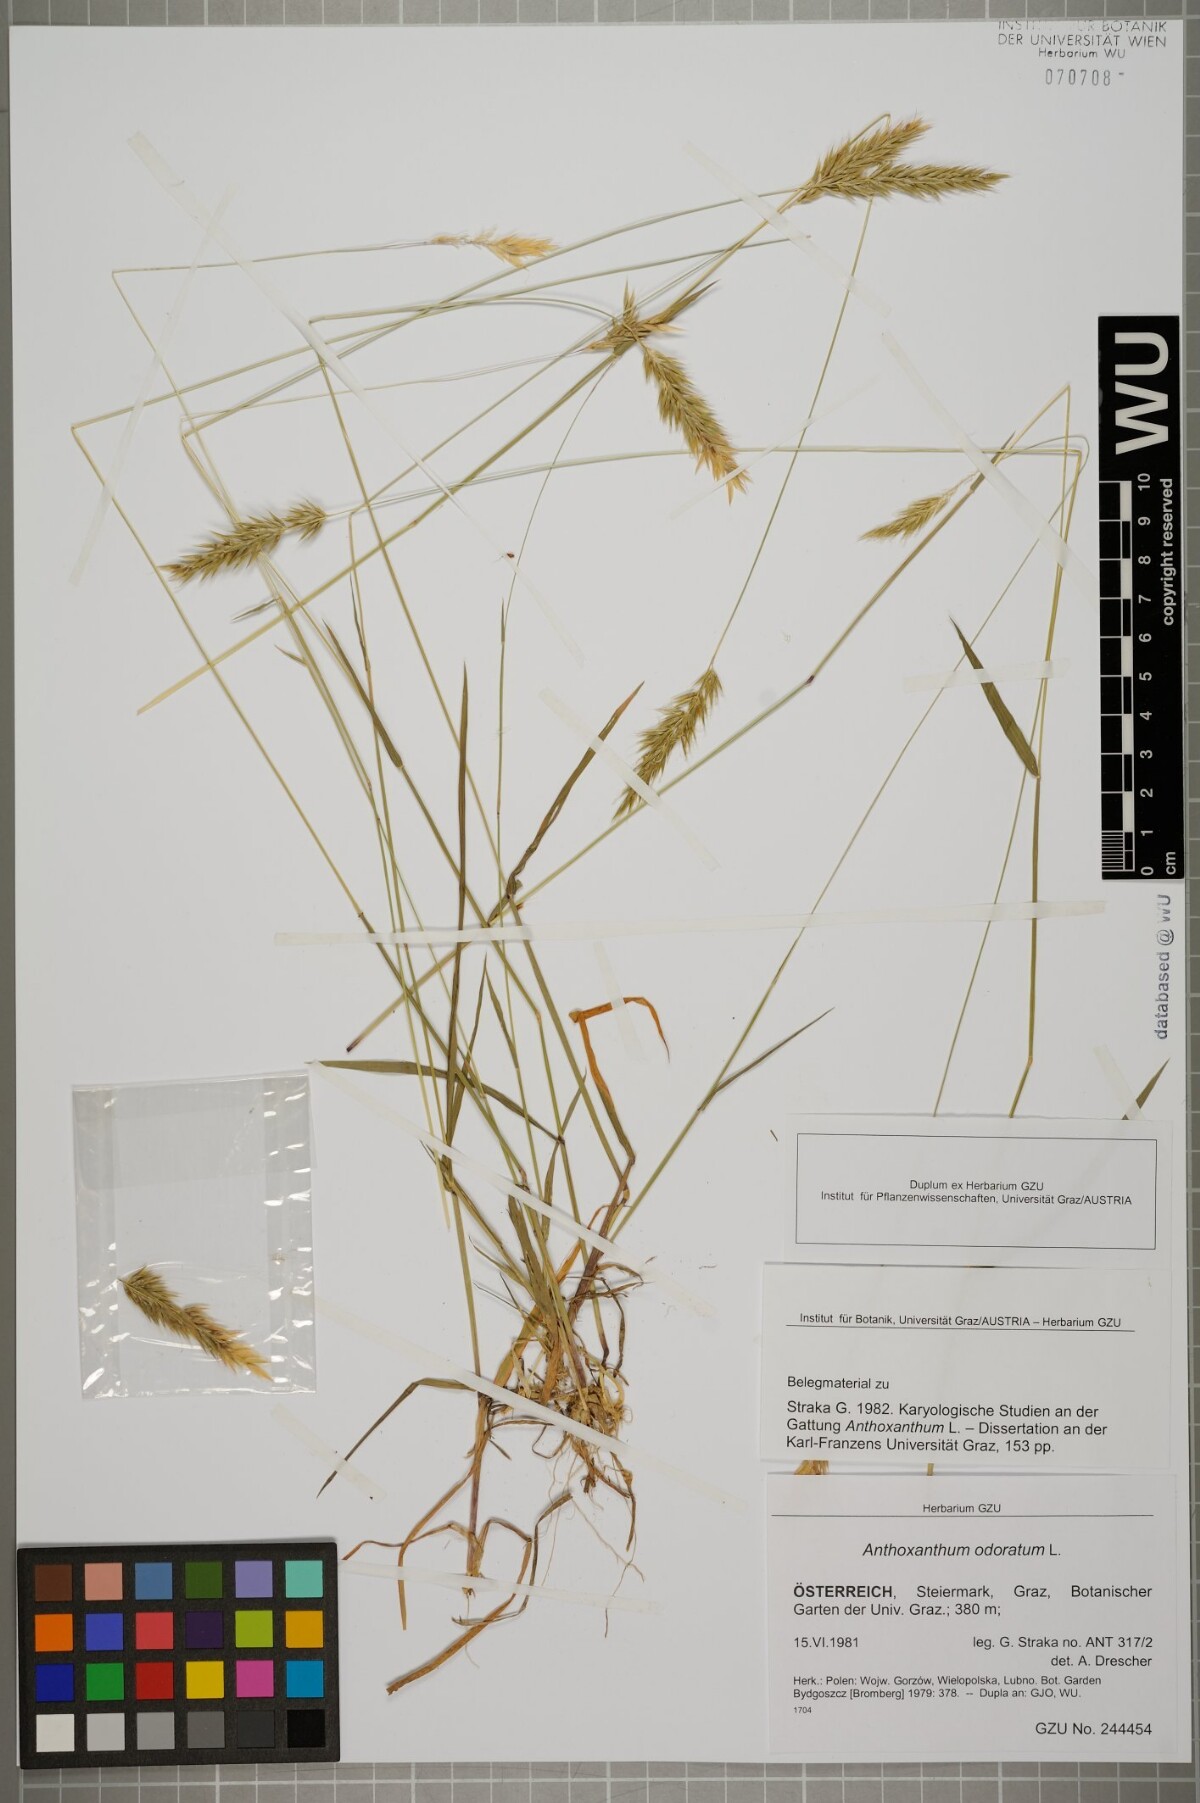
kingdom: Plantae
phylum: Tracheophyta
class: Liliopsida
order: Poales
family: Poaceae
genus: Anthoxanthum
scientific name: Anthoxanthum odoratum
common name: Sweet vernalgrass
